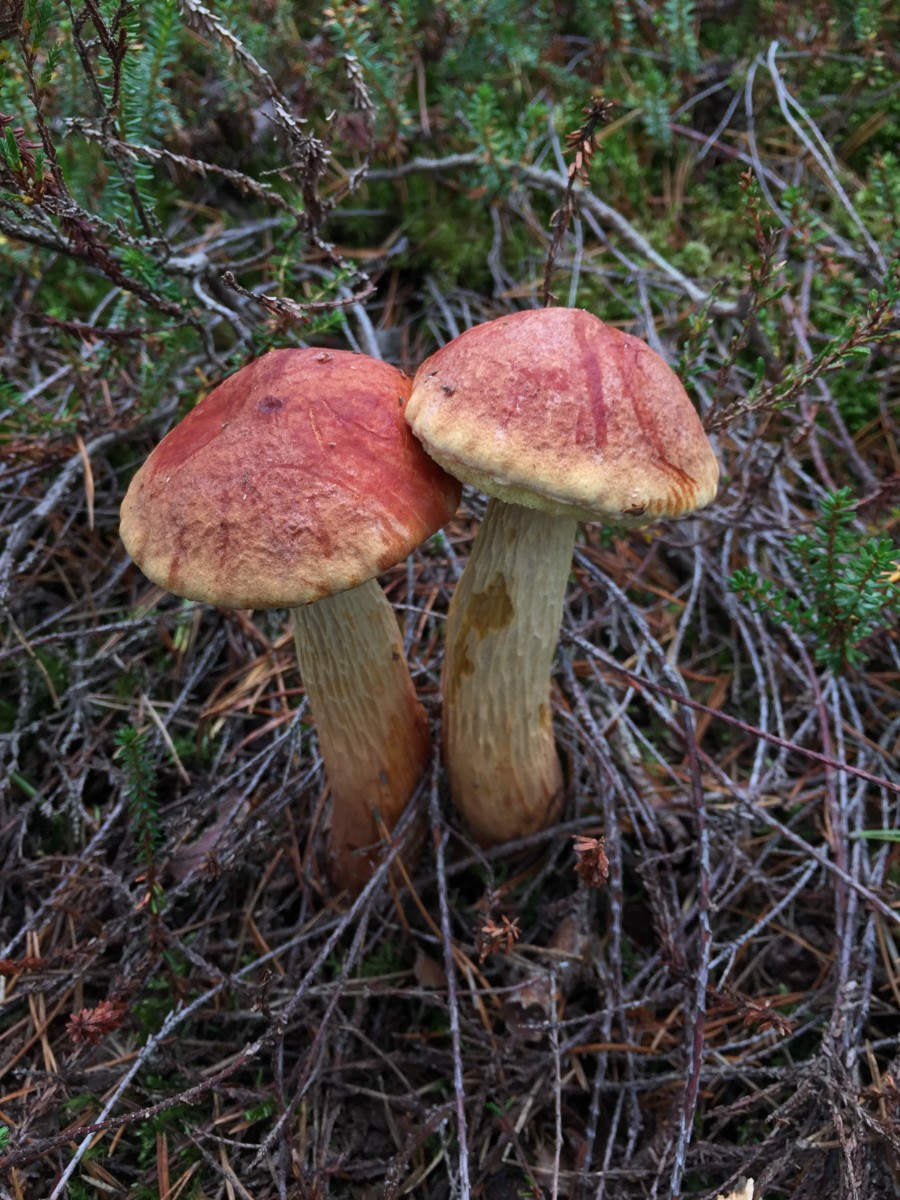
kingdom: Fungi
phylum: Basidiomycota
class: Agaricomycetes
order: Boletales
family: Boletaceae
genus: Aureoboletus
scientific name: Aureoboletus projectellus
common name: ribbestokket rørhat
